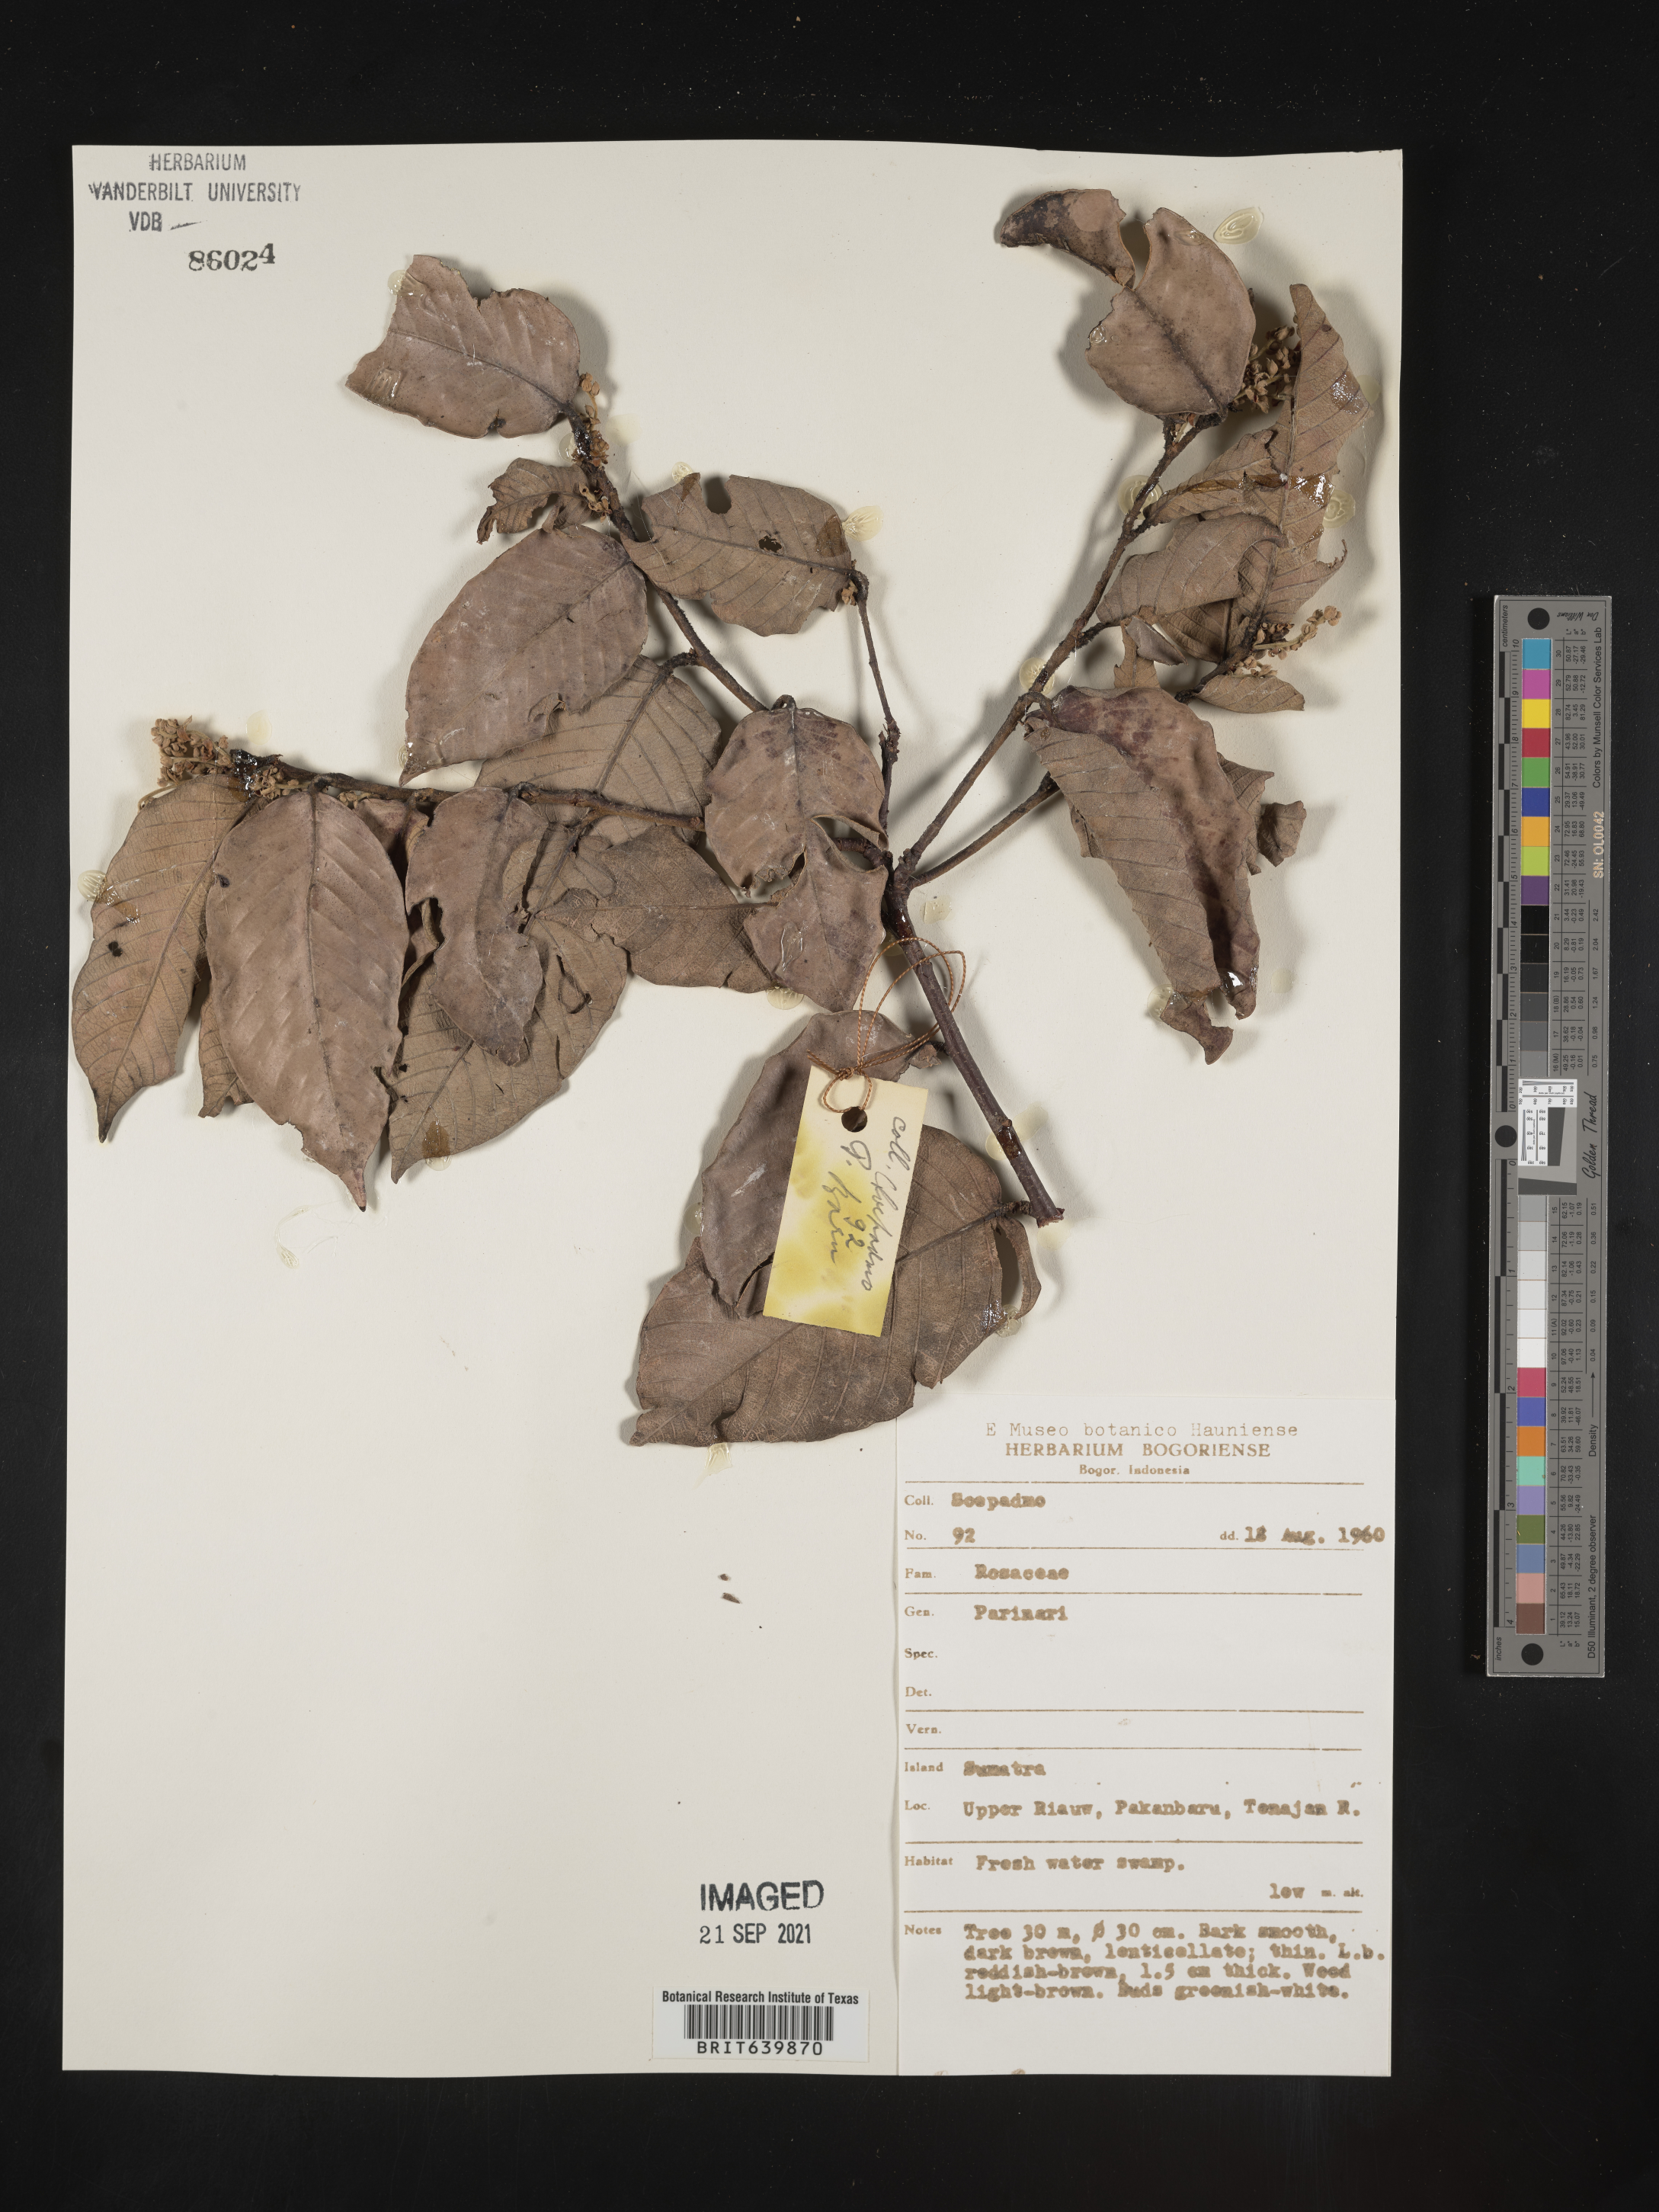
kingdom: Plantae
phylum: Tracheophyta
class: Magnoliopsida
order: Malpighiales
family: Chrysobalanaceae
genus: Parinari
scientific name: Parinari
